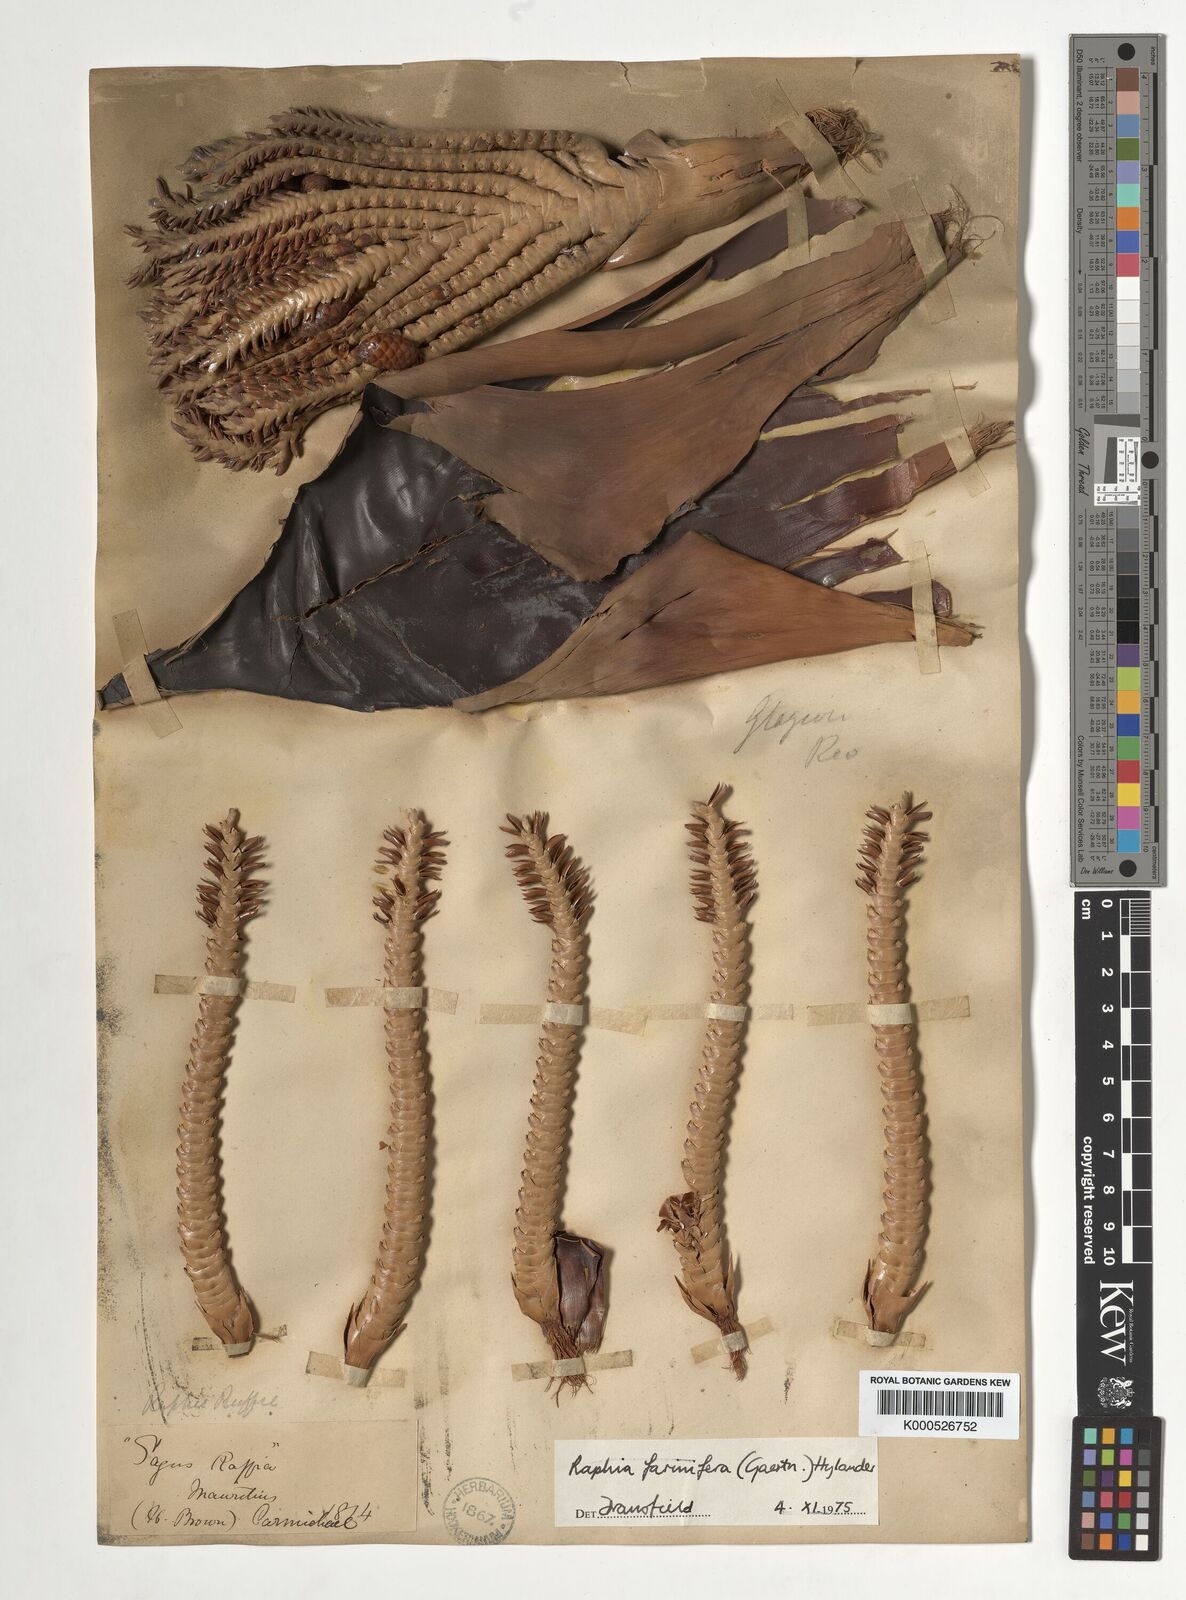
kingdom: Plantae
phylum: Tracheophyta
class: Liliopsida
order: Arecales
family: Arecaceae
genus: Raphia
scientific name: Raphia farinifera
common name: Raphia palm
